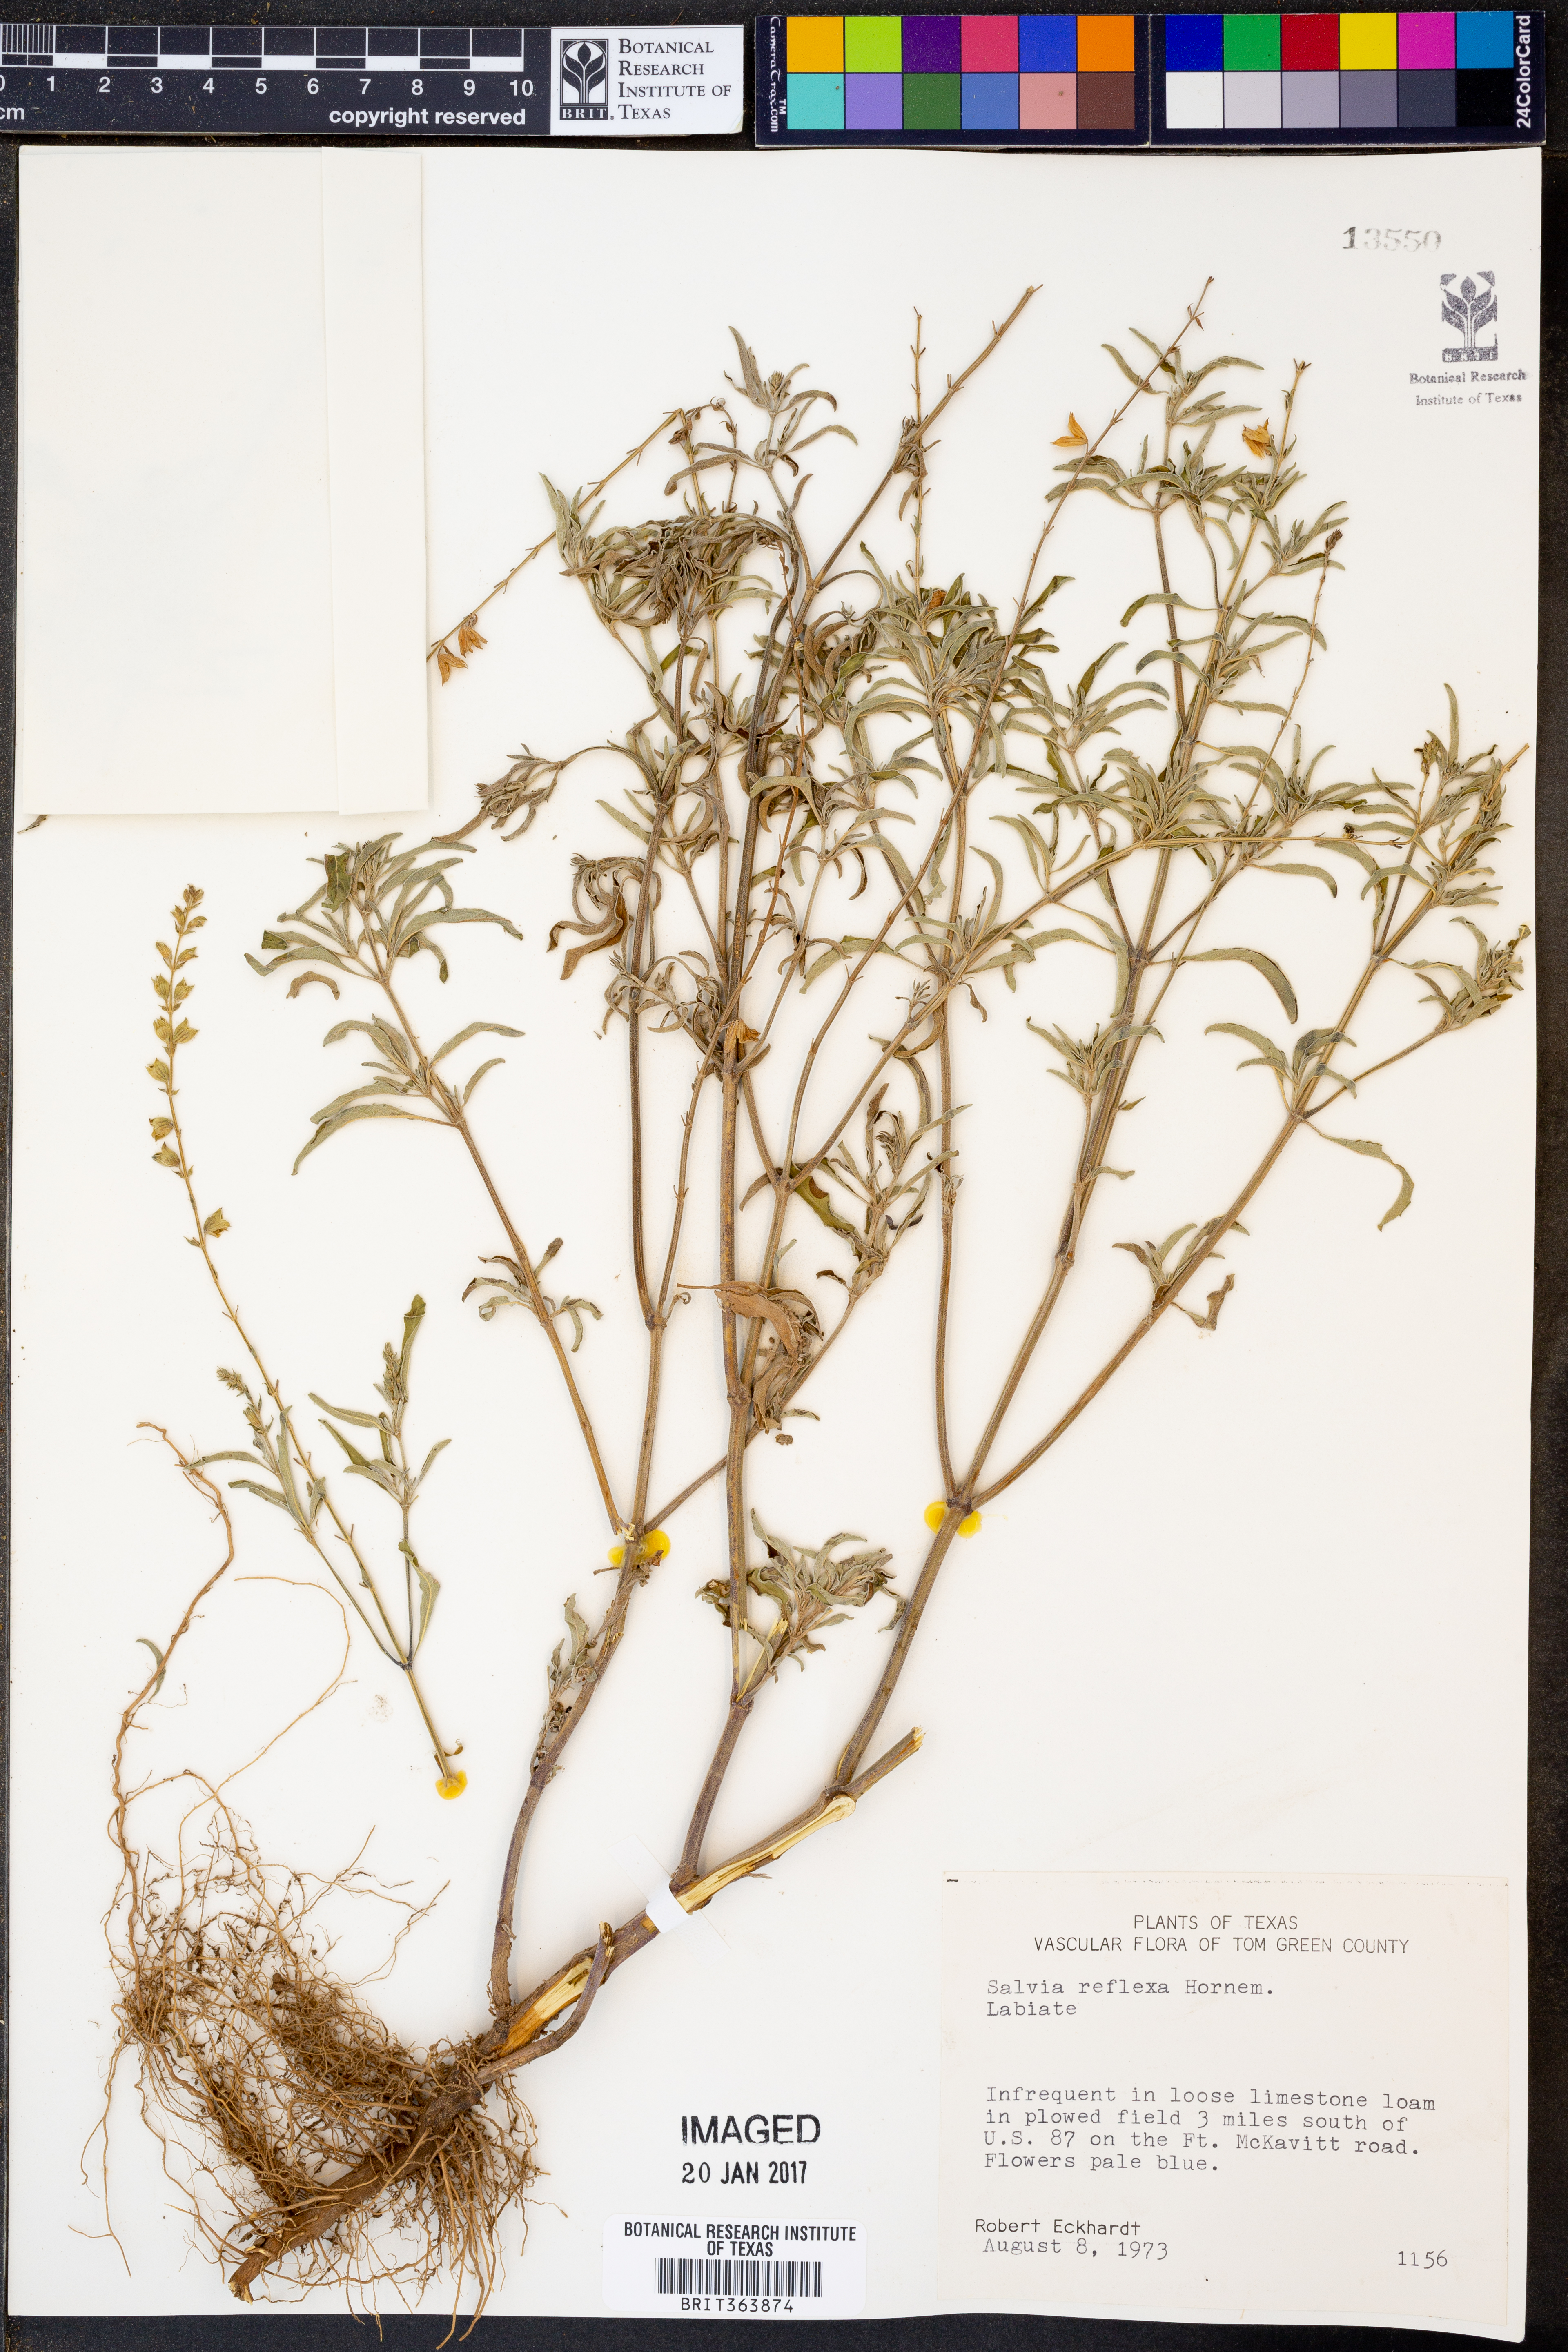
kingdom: Plantae
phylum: Tracheophyta
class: Magnoliopsida
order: Lamiales
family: Lamiaceae
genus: Salvia
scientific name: Salvia reflexa
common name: Mintweed
